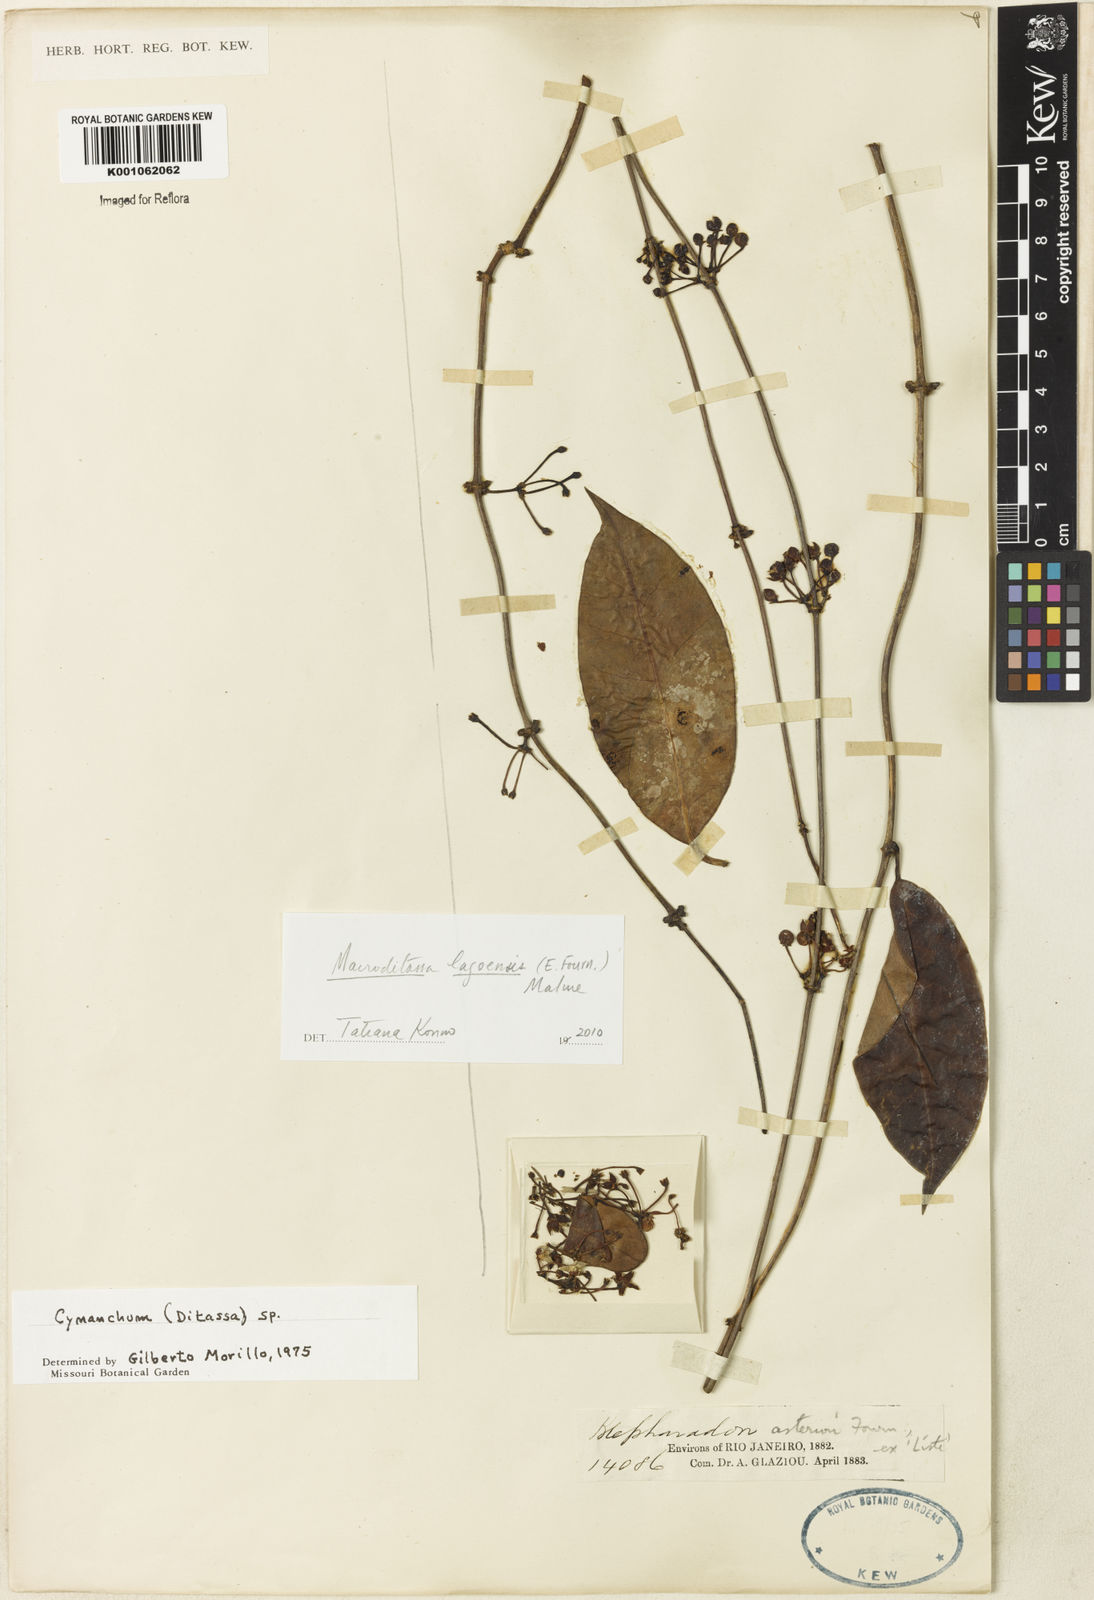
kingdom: Plantae
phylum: Tracheophyta
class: Magnoliopsida
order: Gentianales
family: Apocynaceae
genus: Macroditassa
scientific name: Macroditassa lagoensis
